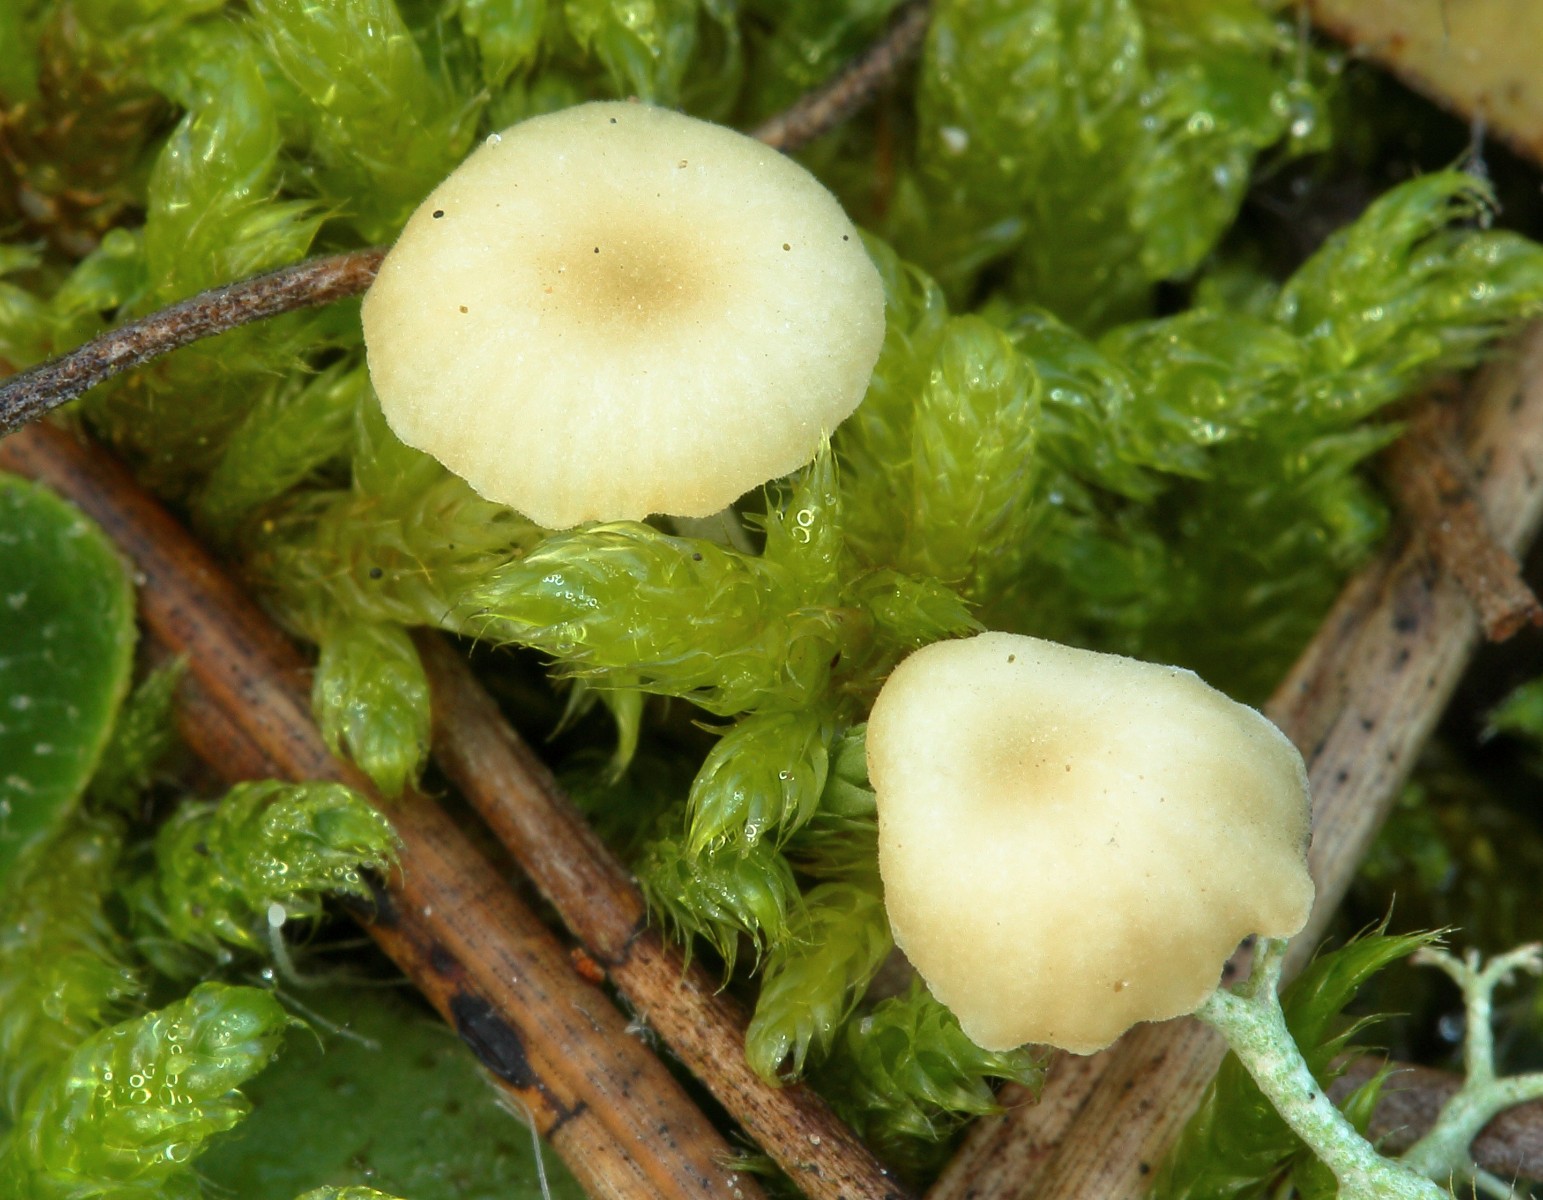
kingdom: Fungi
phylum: Basidiomycota
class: Agaricomycetes
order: Hymenochaetales
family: Rickenellaceae
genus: Rickenella
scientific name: Rickenella fibula
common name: orange mosnavlehat
